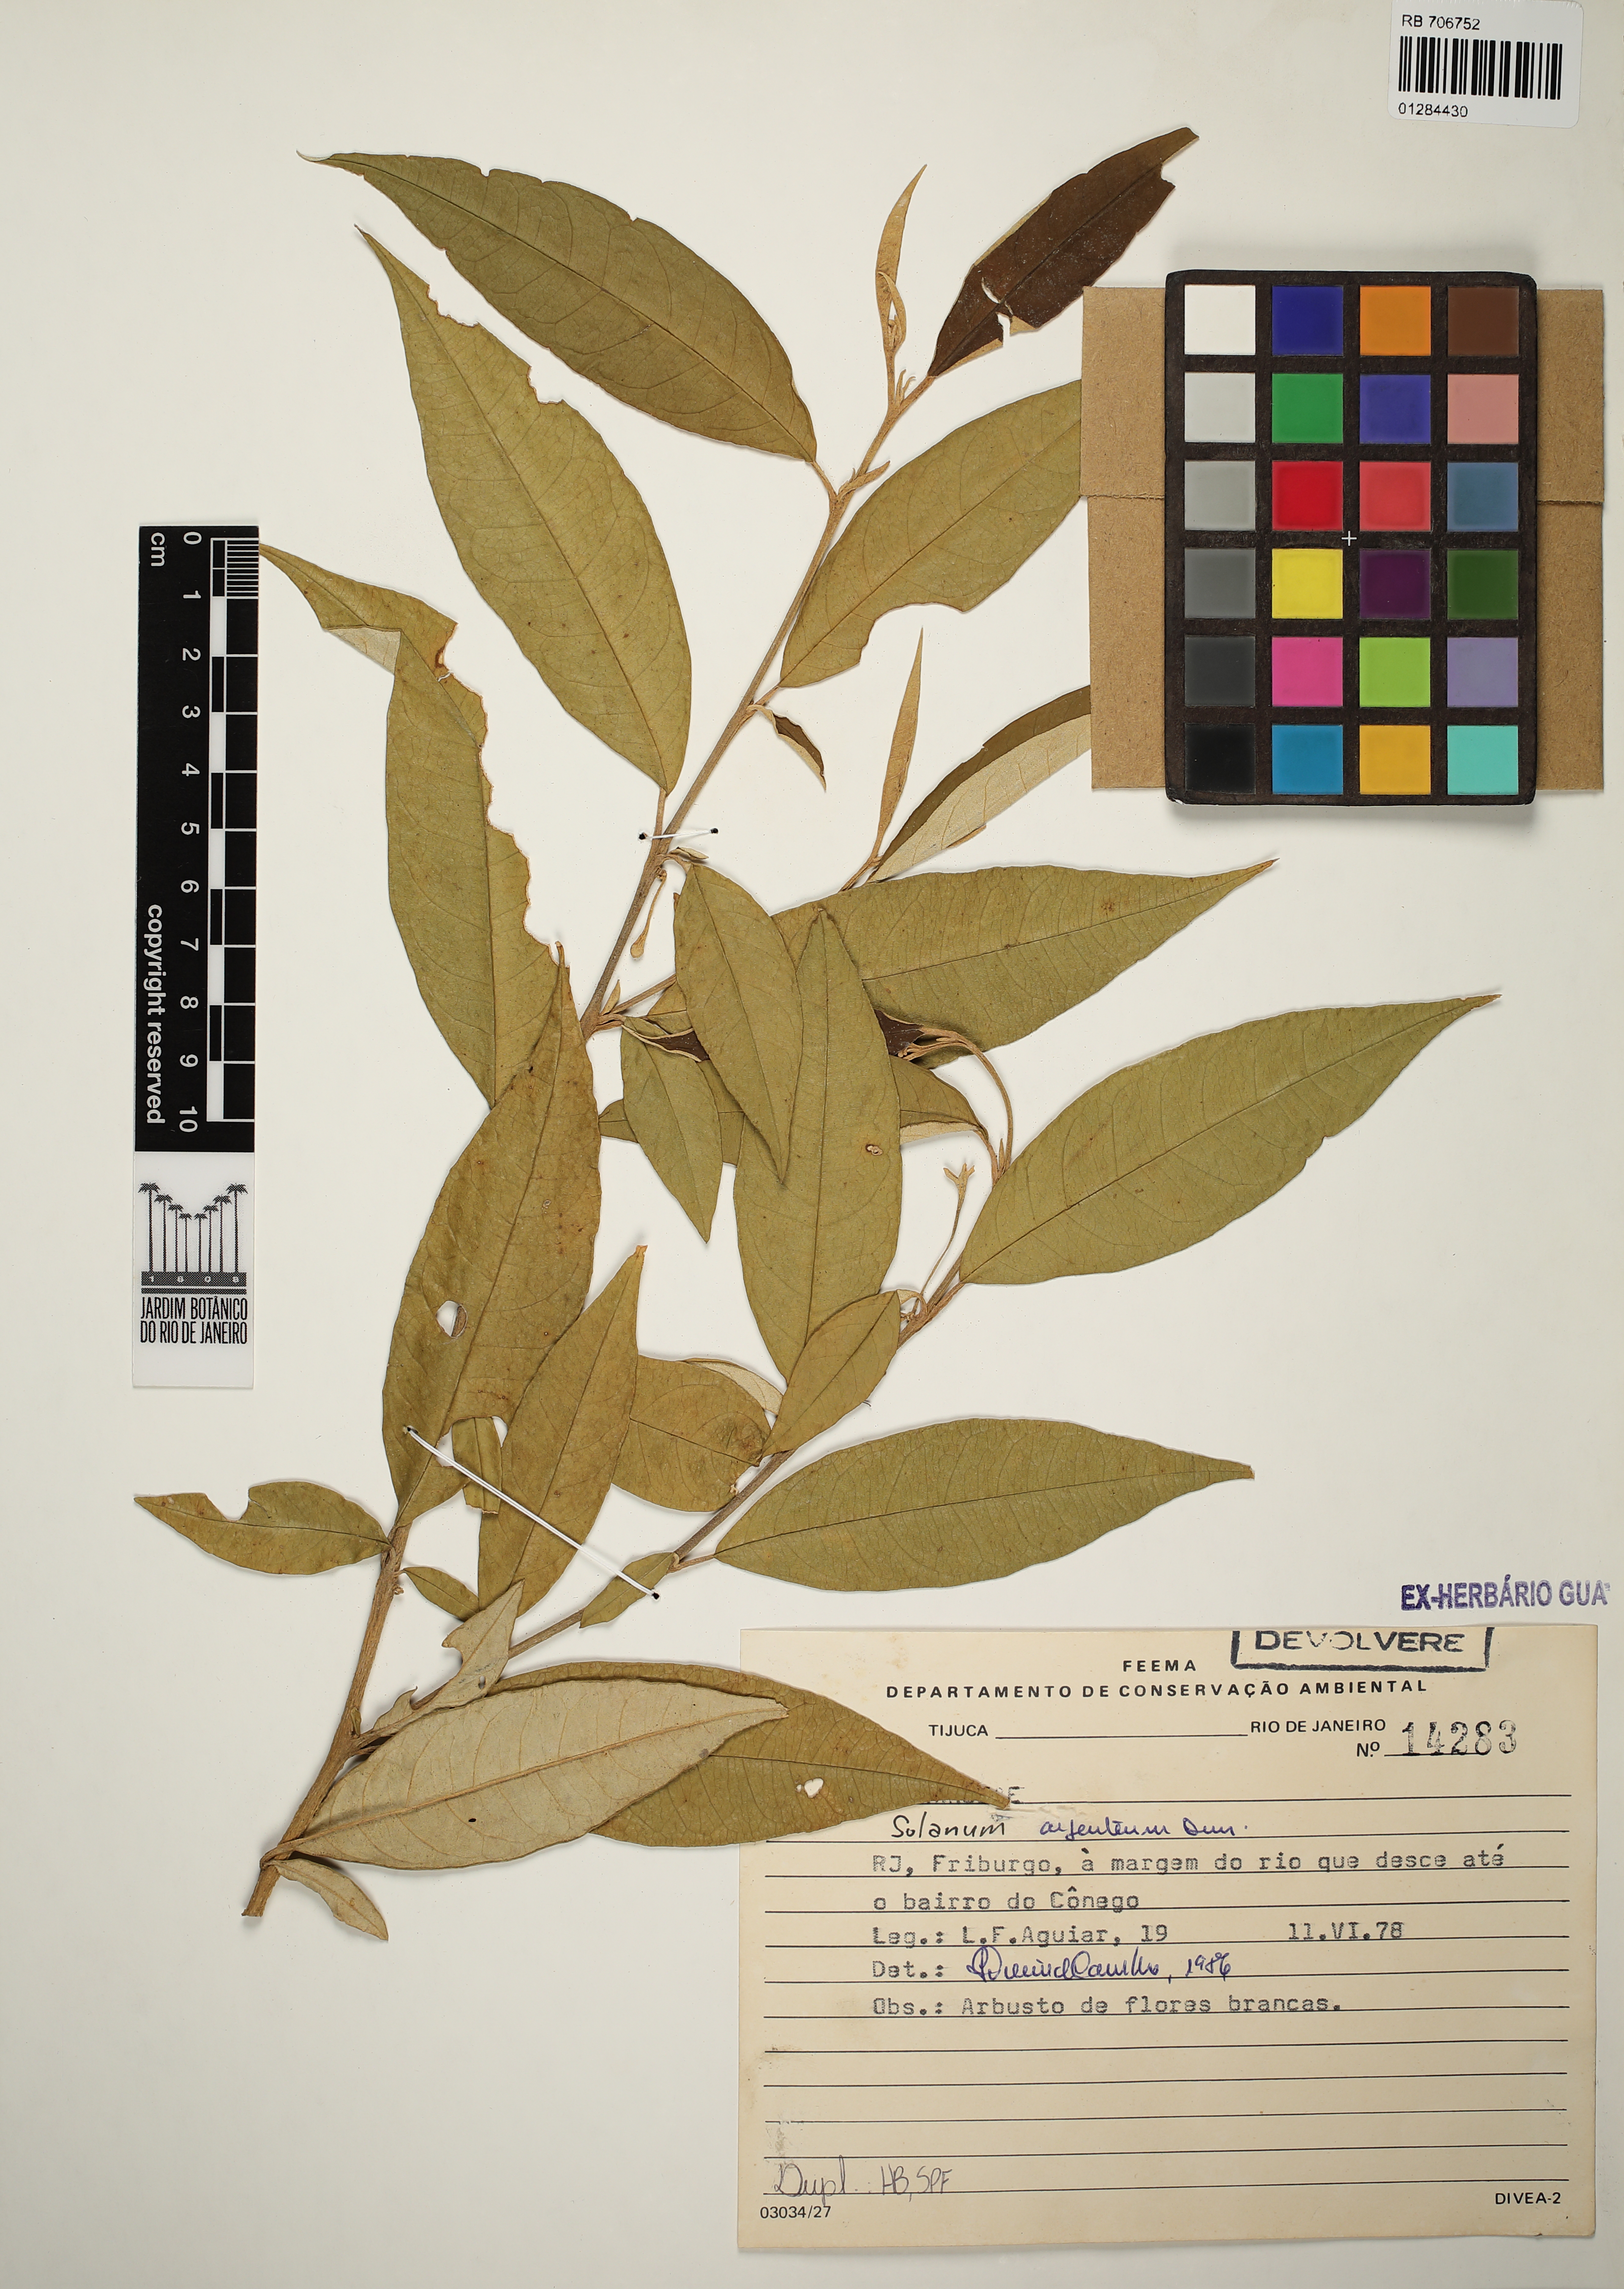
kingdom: Plantae
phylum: Tracheophyta
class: Magnoliopsida
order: Solanales
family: Solanaceae
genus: Solanum
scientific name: Solanum swartzianum
